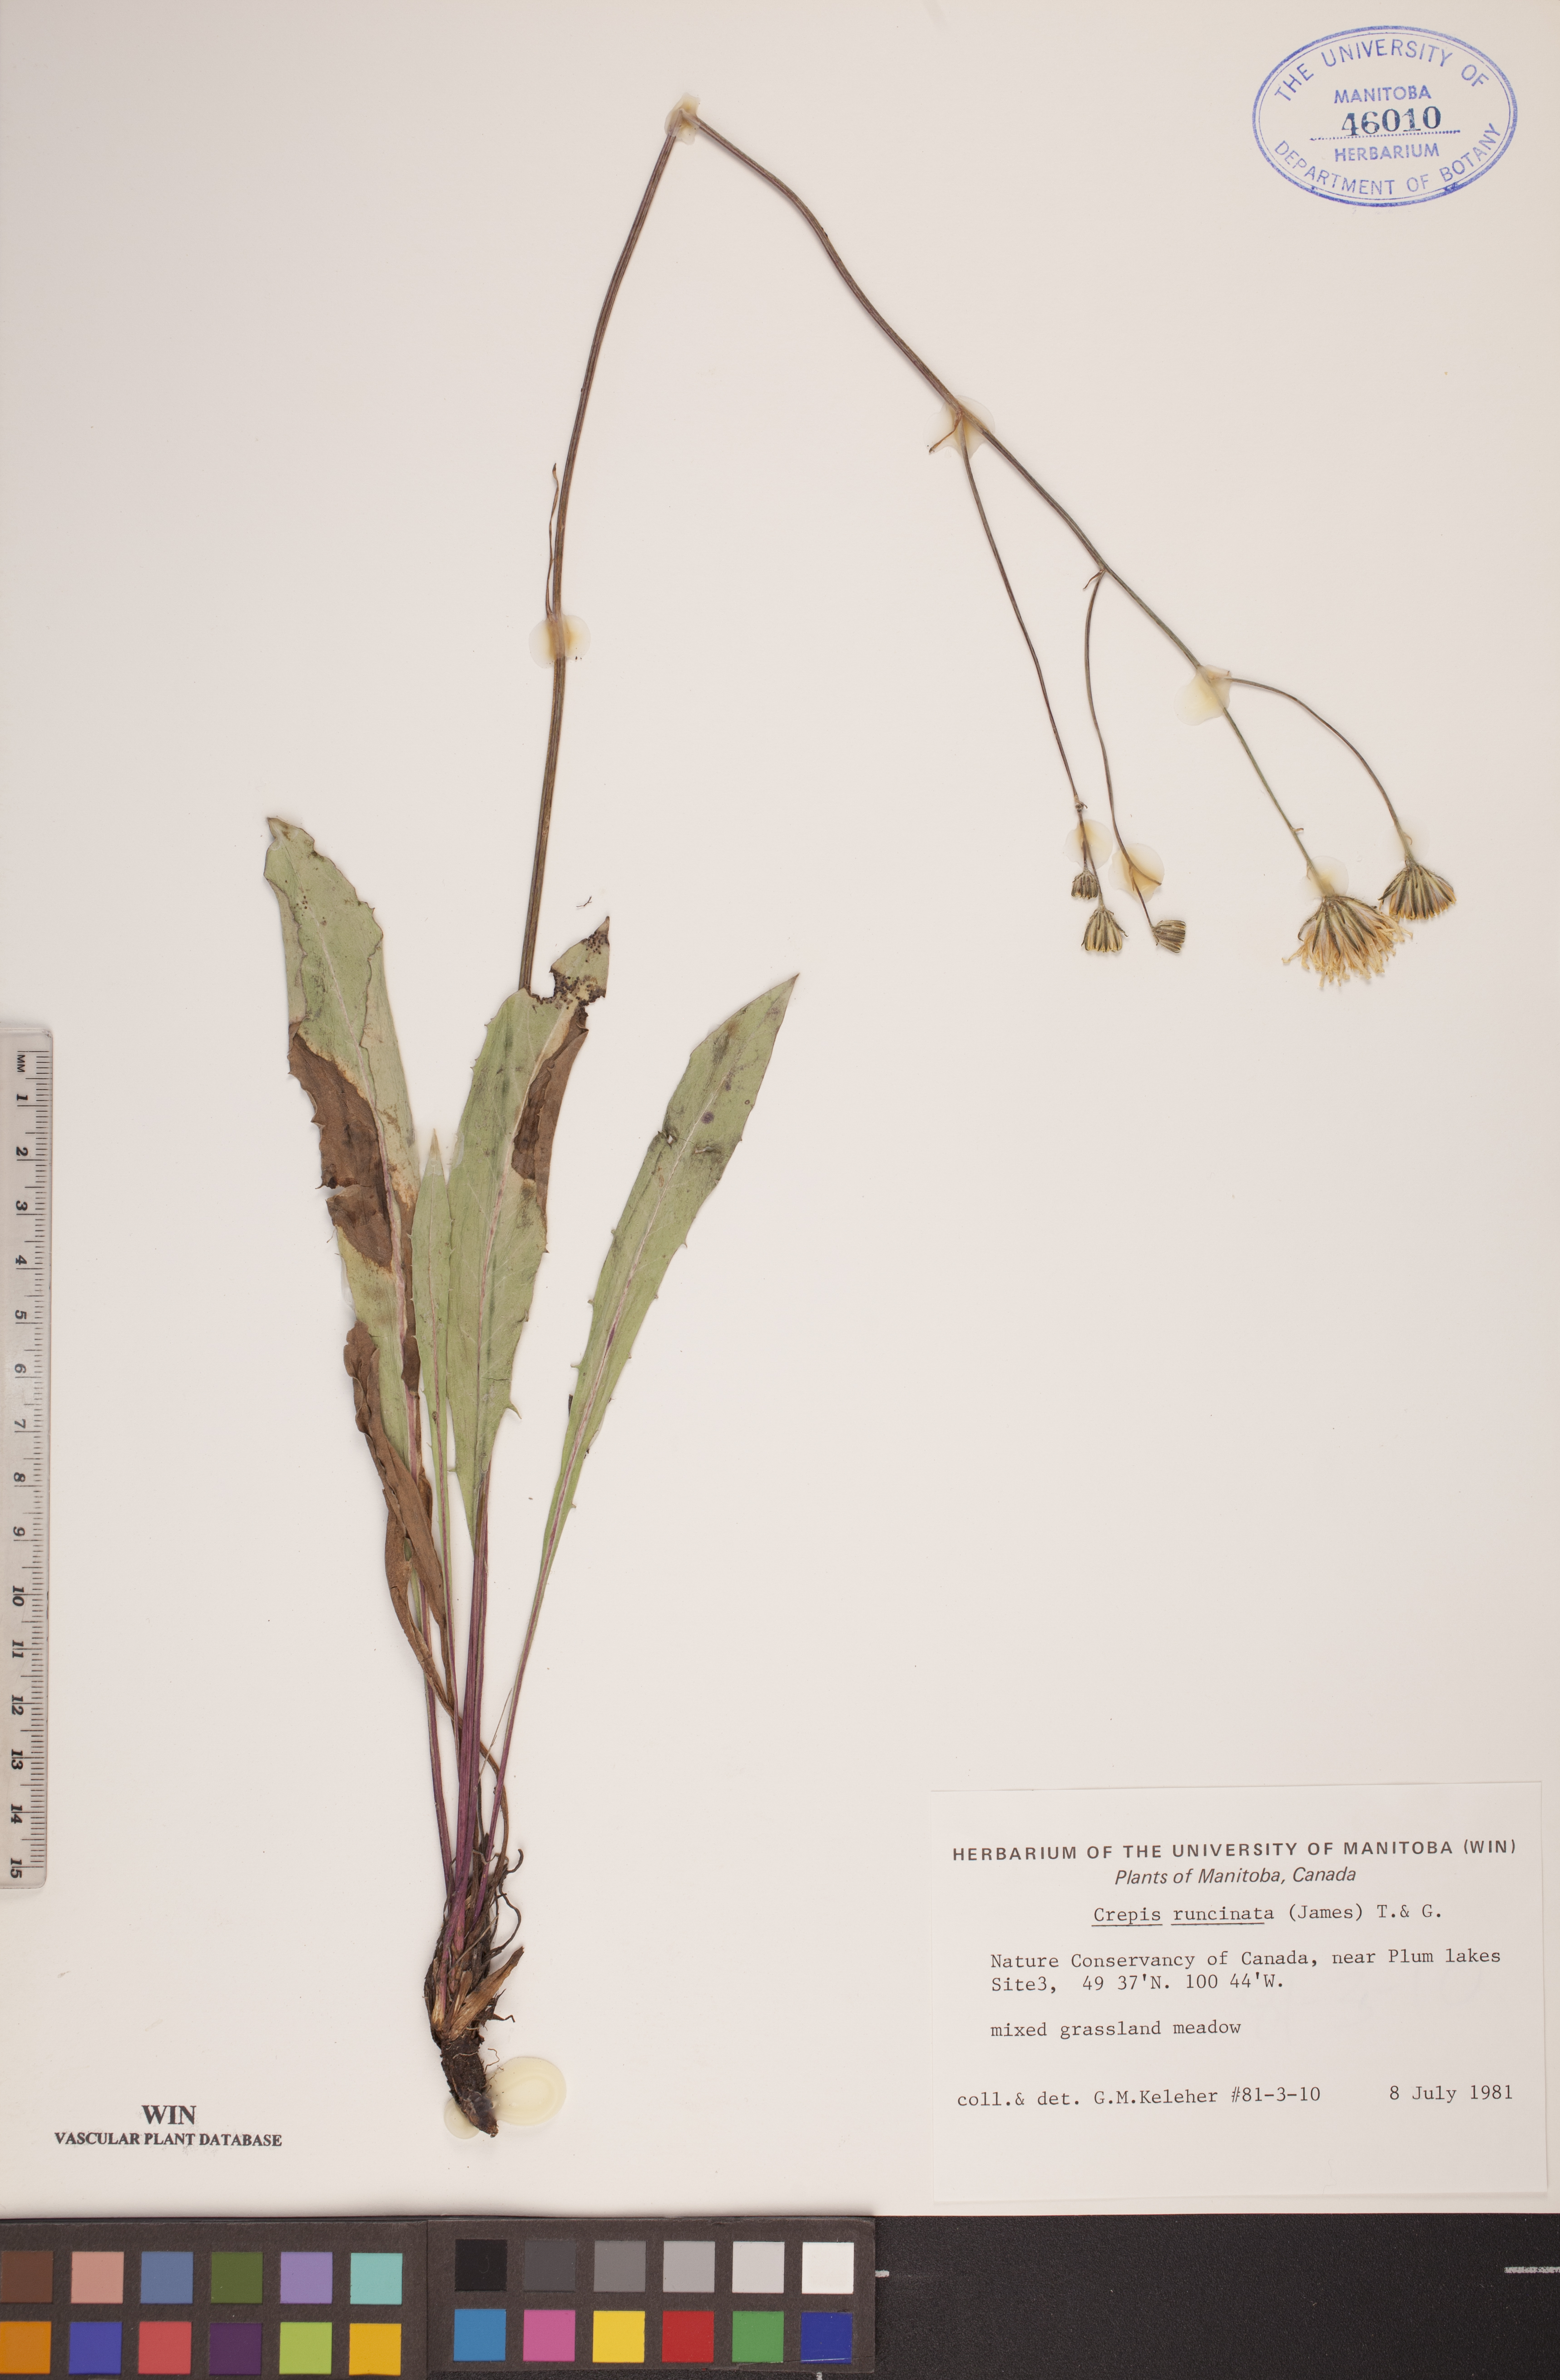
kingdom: Plantae
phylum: Tracheophyta
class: Magnoliopsida
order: Asterales
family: Asteraceae
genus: Crepis
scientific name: Crepis runcinata
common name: Dandelion hawksbeard
